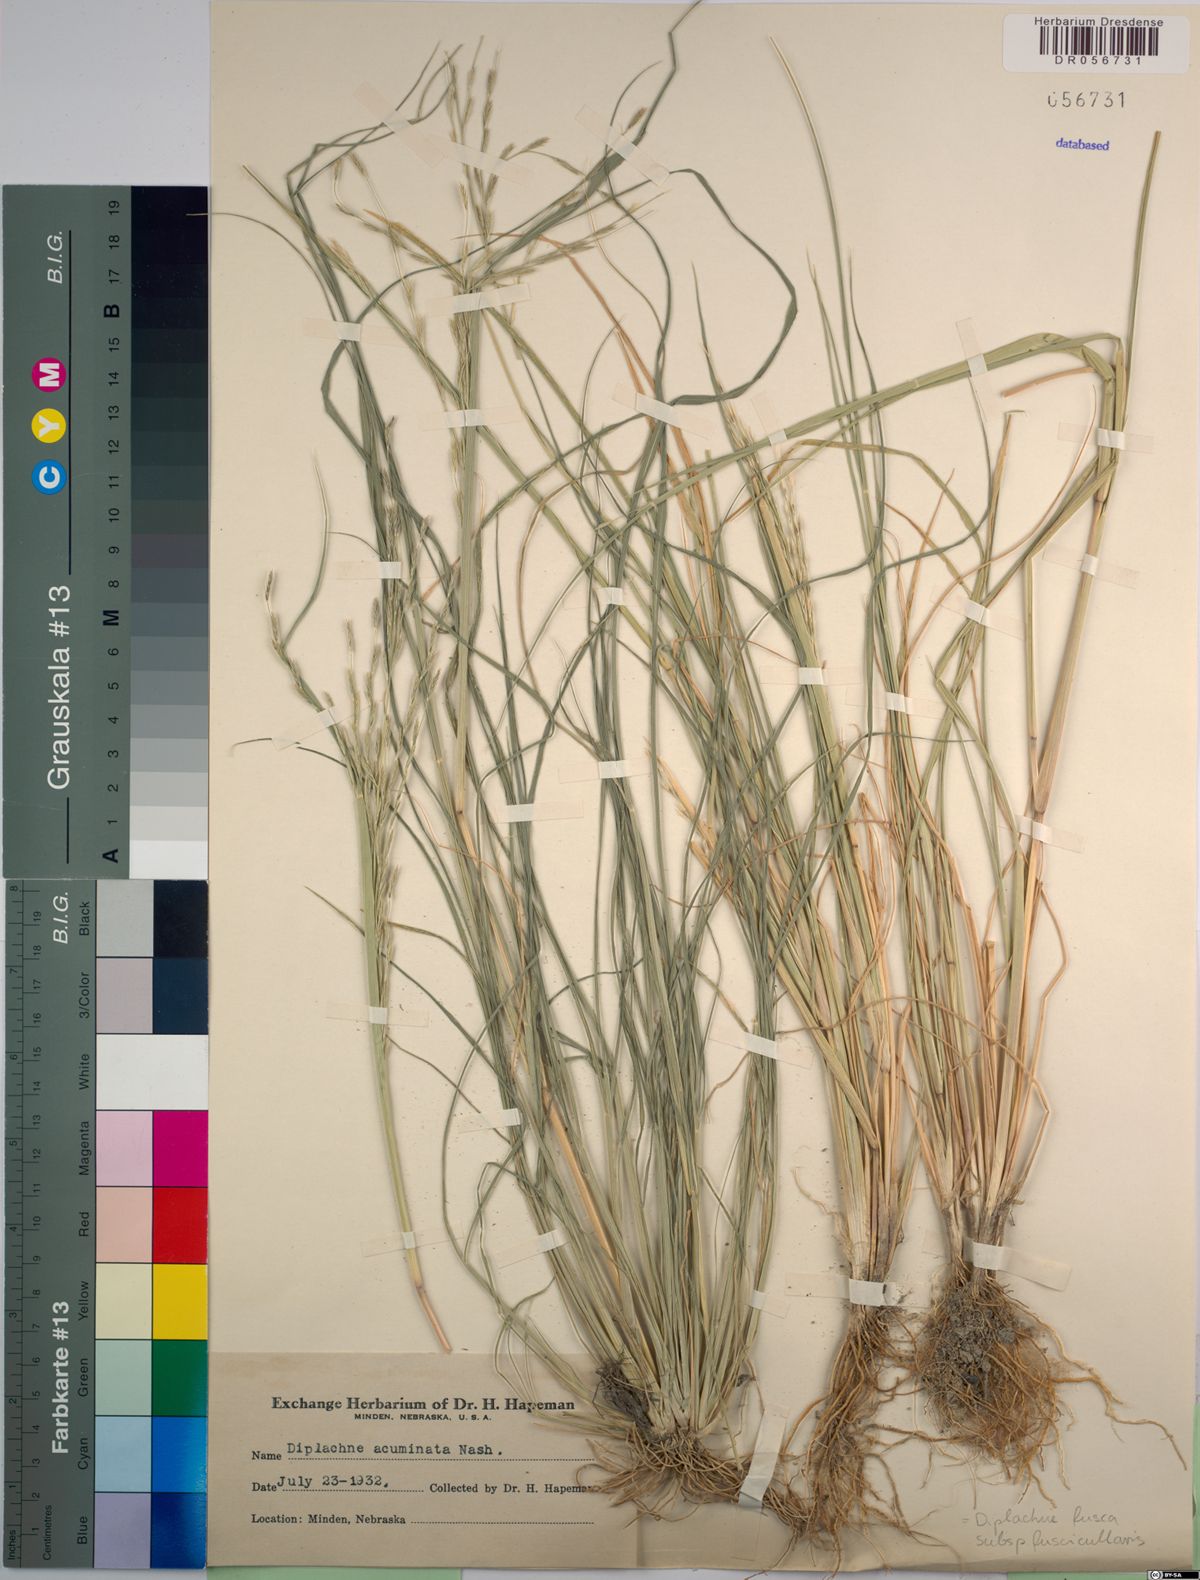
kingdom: Plantae
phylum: Tracheophyta
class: Liliopsida
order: Poales
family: Poaceae
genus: Diplachne
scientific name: Diplachne fusca
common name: Brown beetle grass
